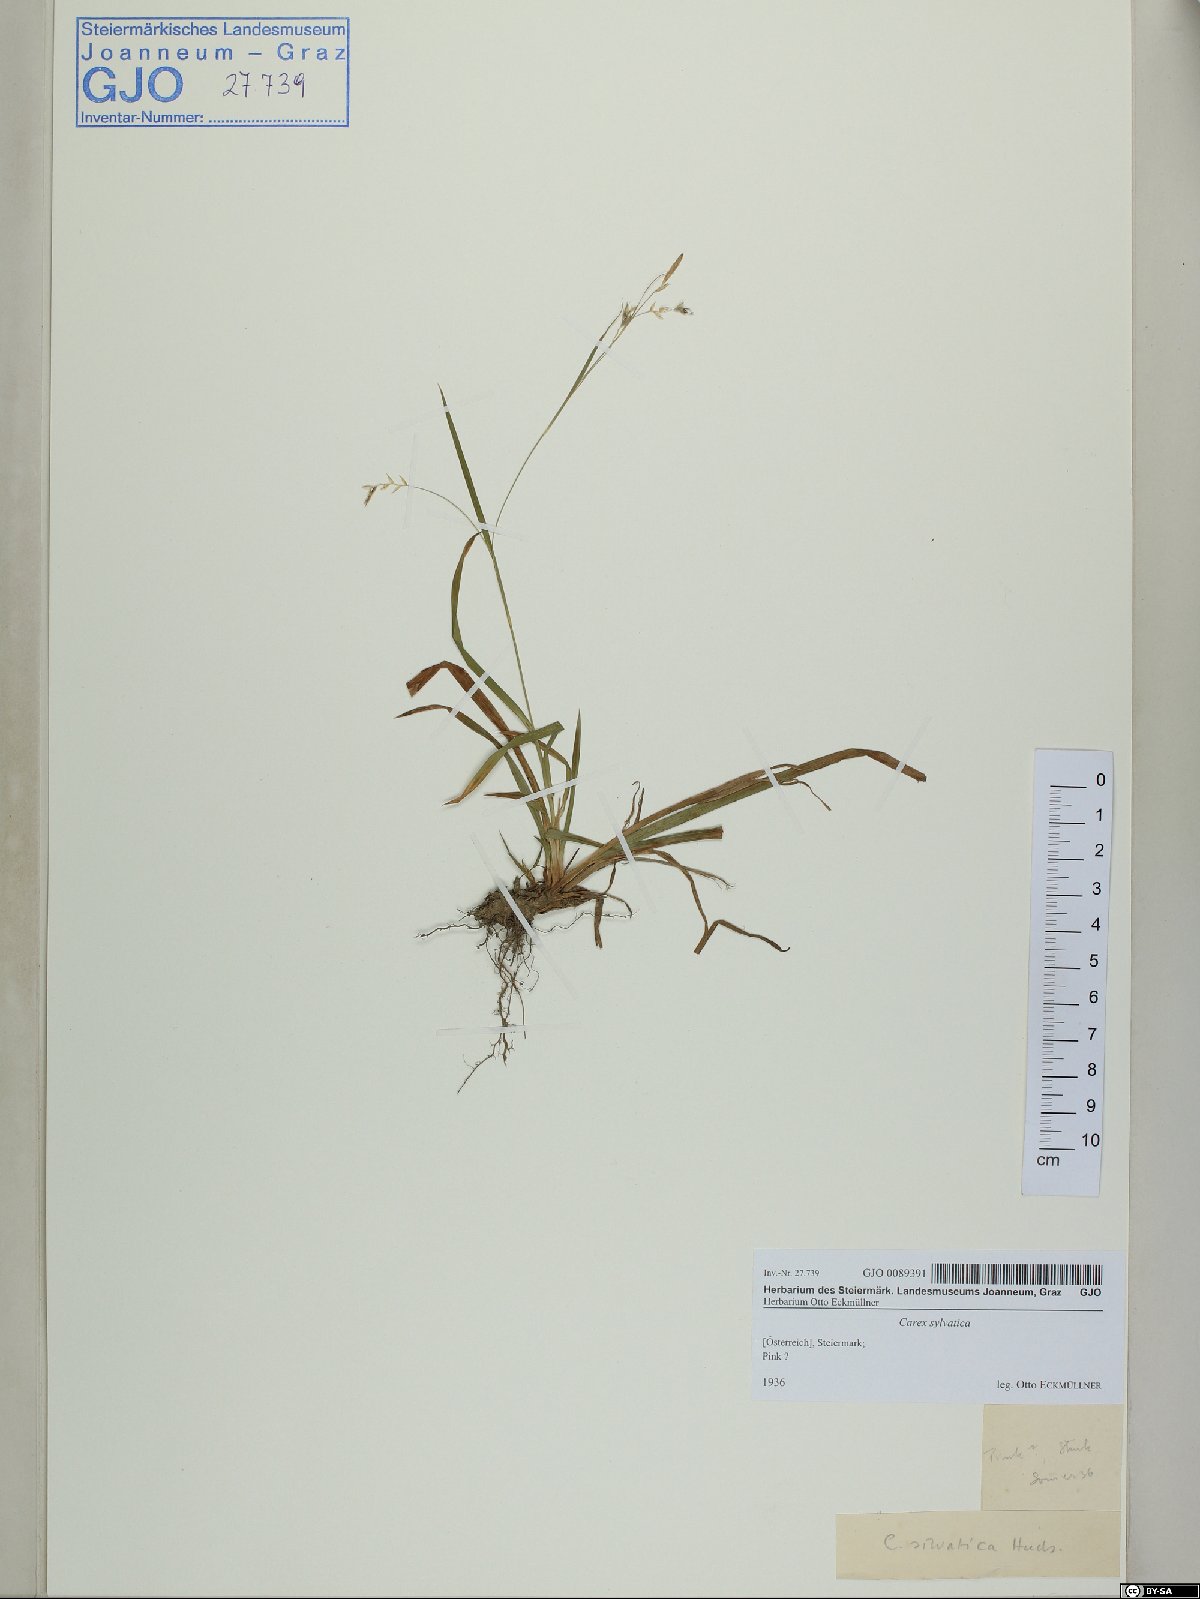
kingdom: Plantae
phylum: Tracheophyta
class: Liliopsida
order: Poales
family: Cyperaceae
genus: Carex
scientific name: Carex sylvatica
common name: Wood-sedge
